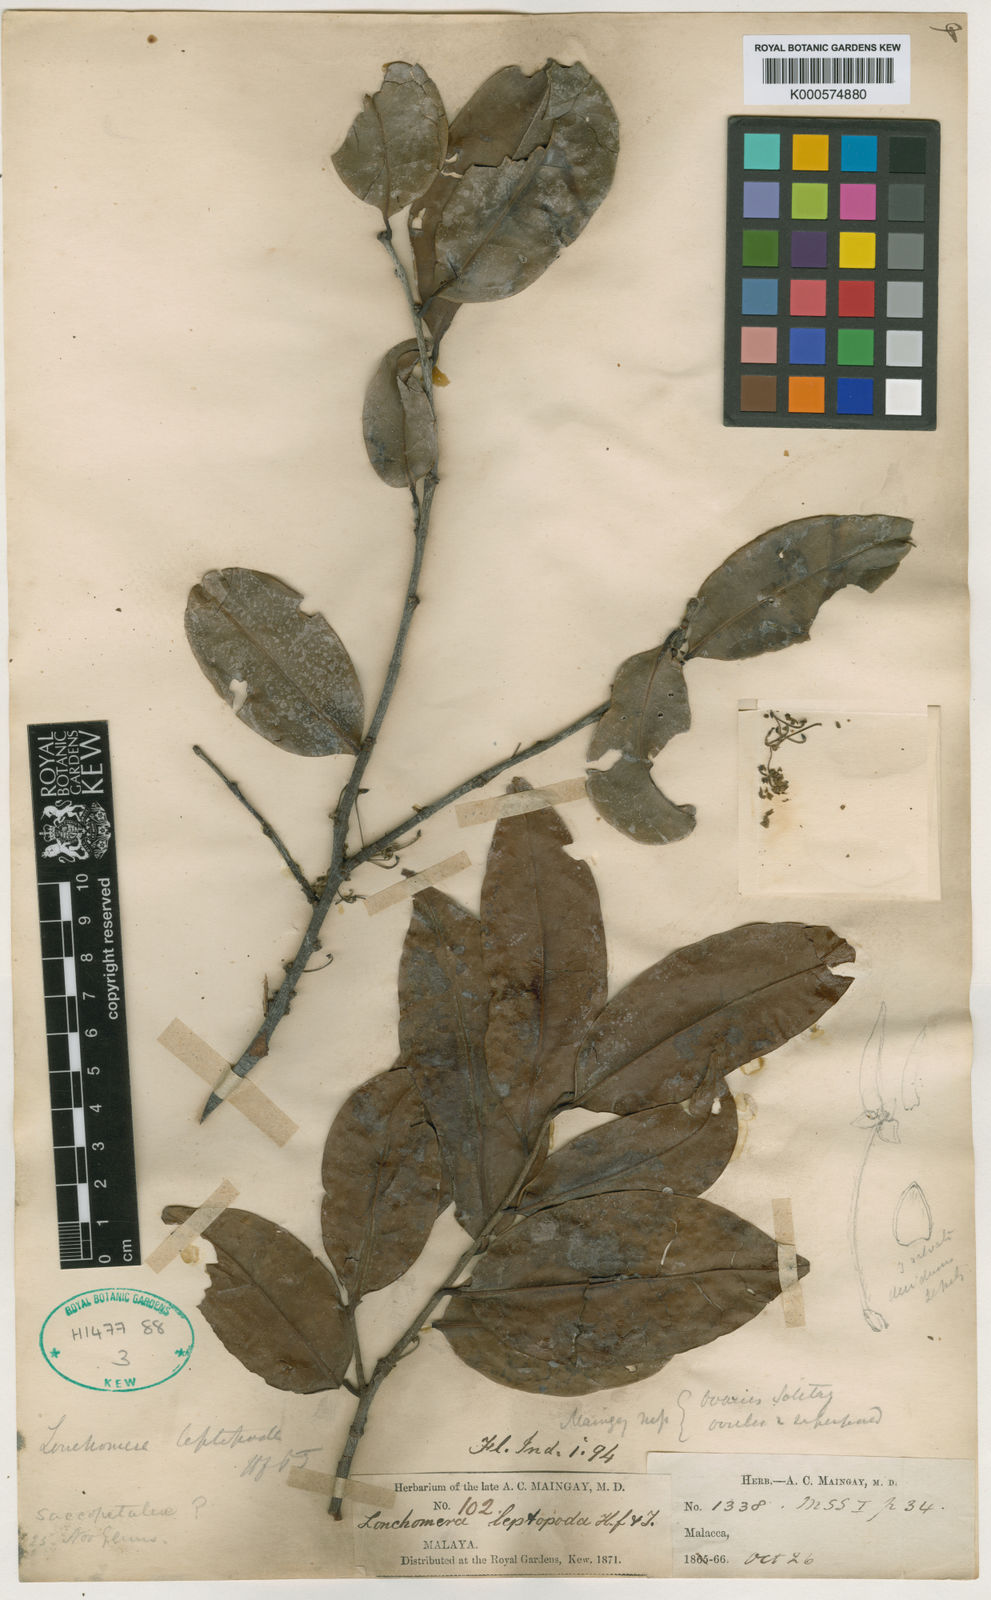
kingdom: Plantae
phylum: Tracheophyta
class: Magnoliopsida
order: Magnoliales
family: Annonaceae
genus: Mezzettia
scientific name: Mezzettia parviflora
